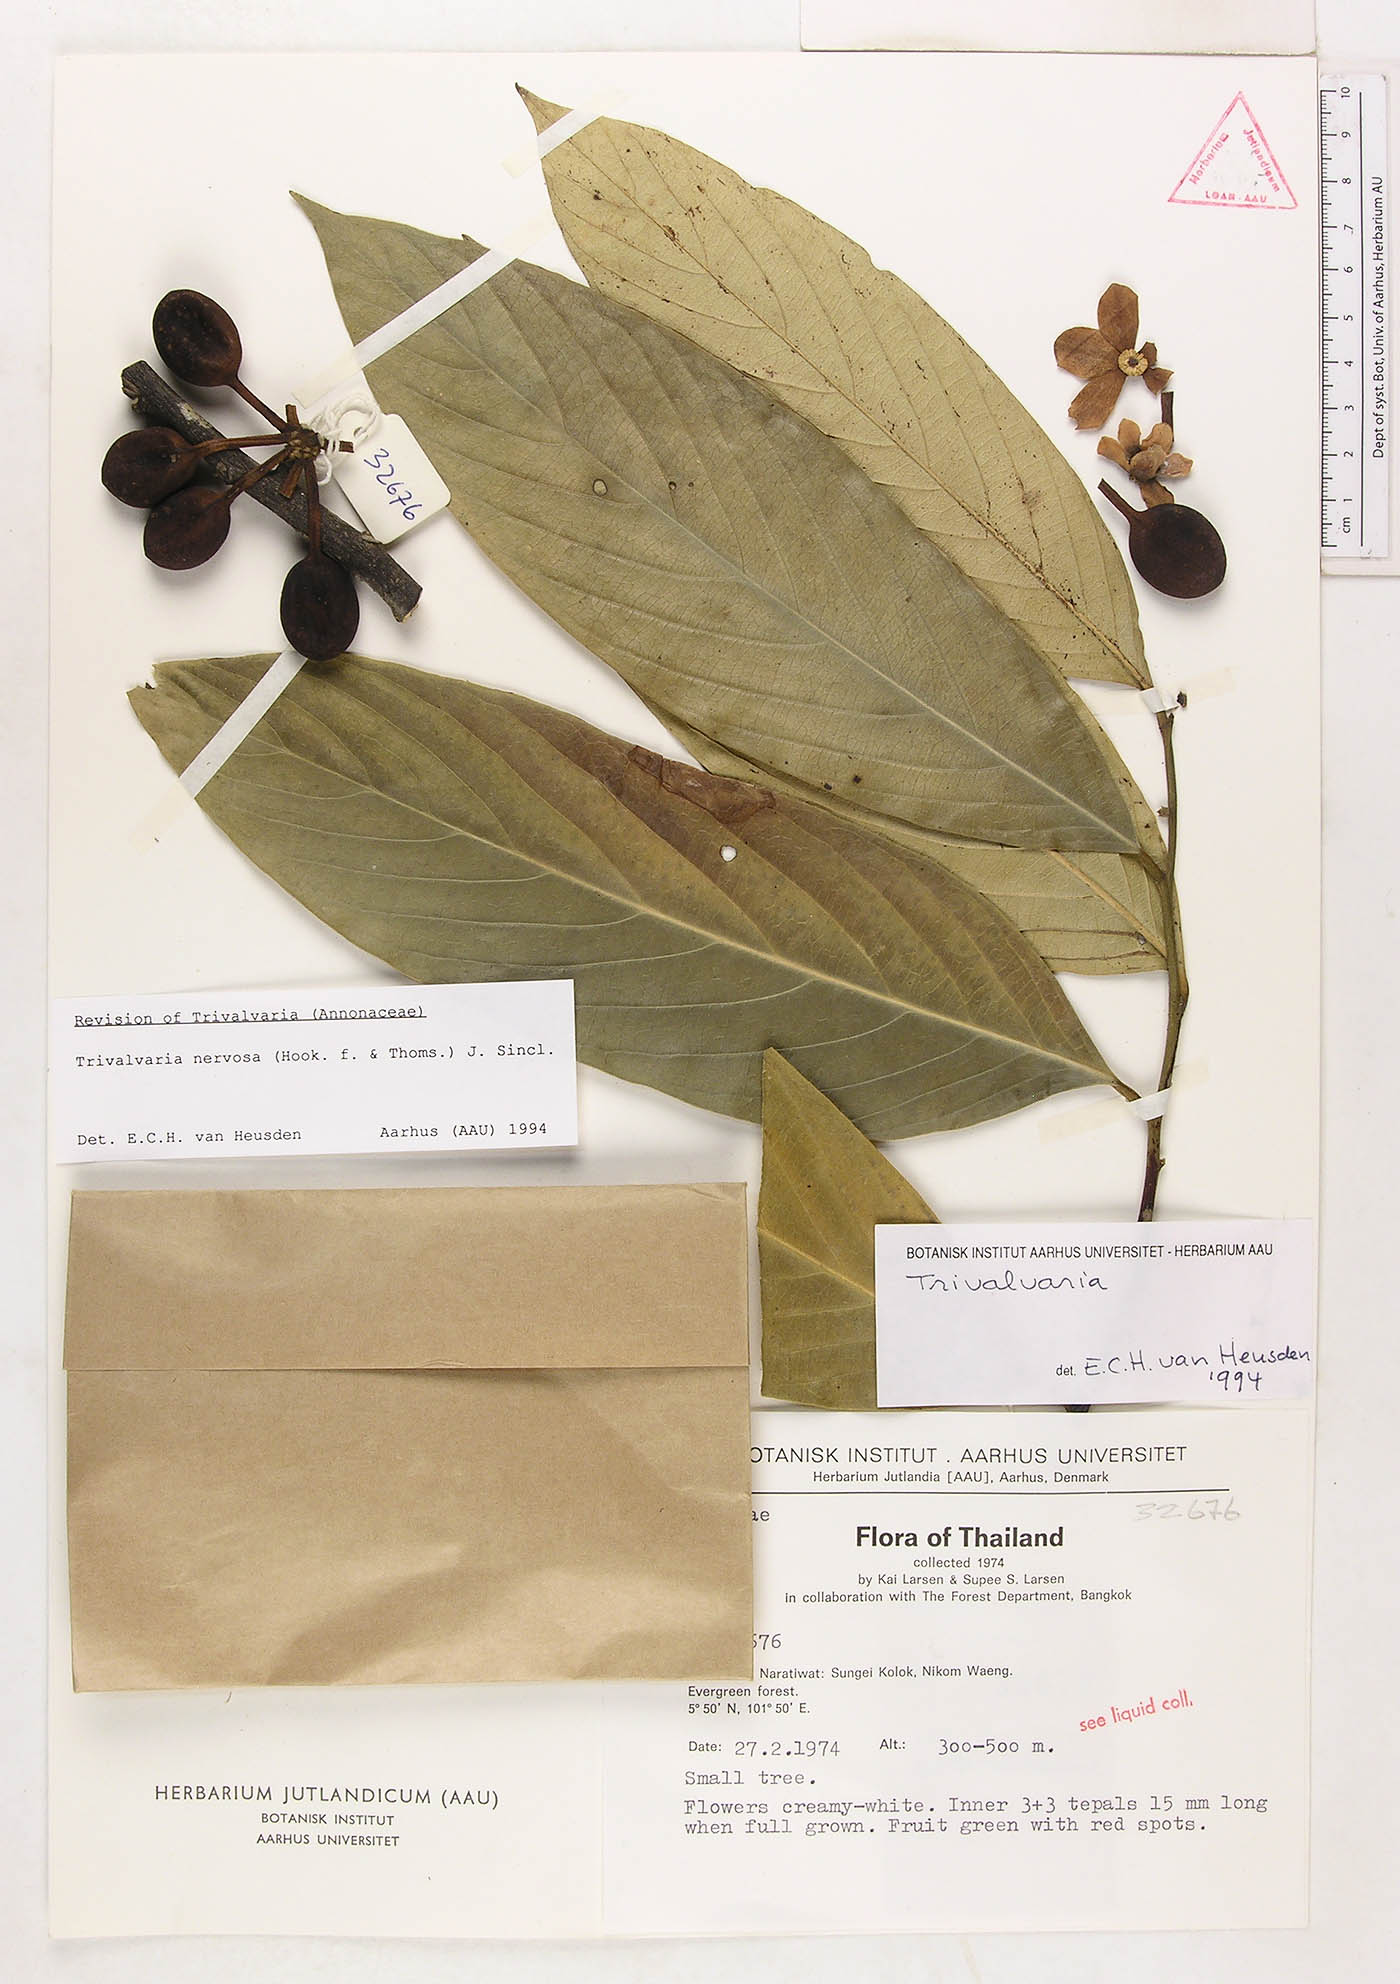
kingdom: Plantae
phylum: Tracheophyta
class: Magnoliopsida
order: Magnoliales
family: Annonaceae
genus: Trivalvaria
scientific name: Trivalvaria nervosa
